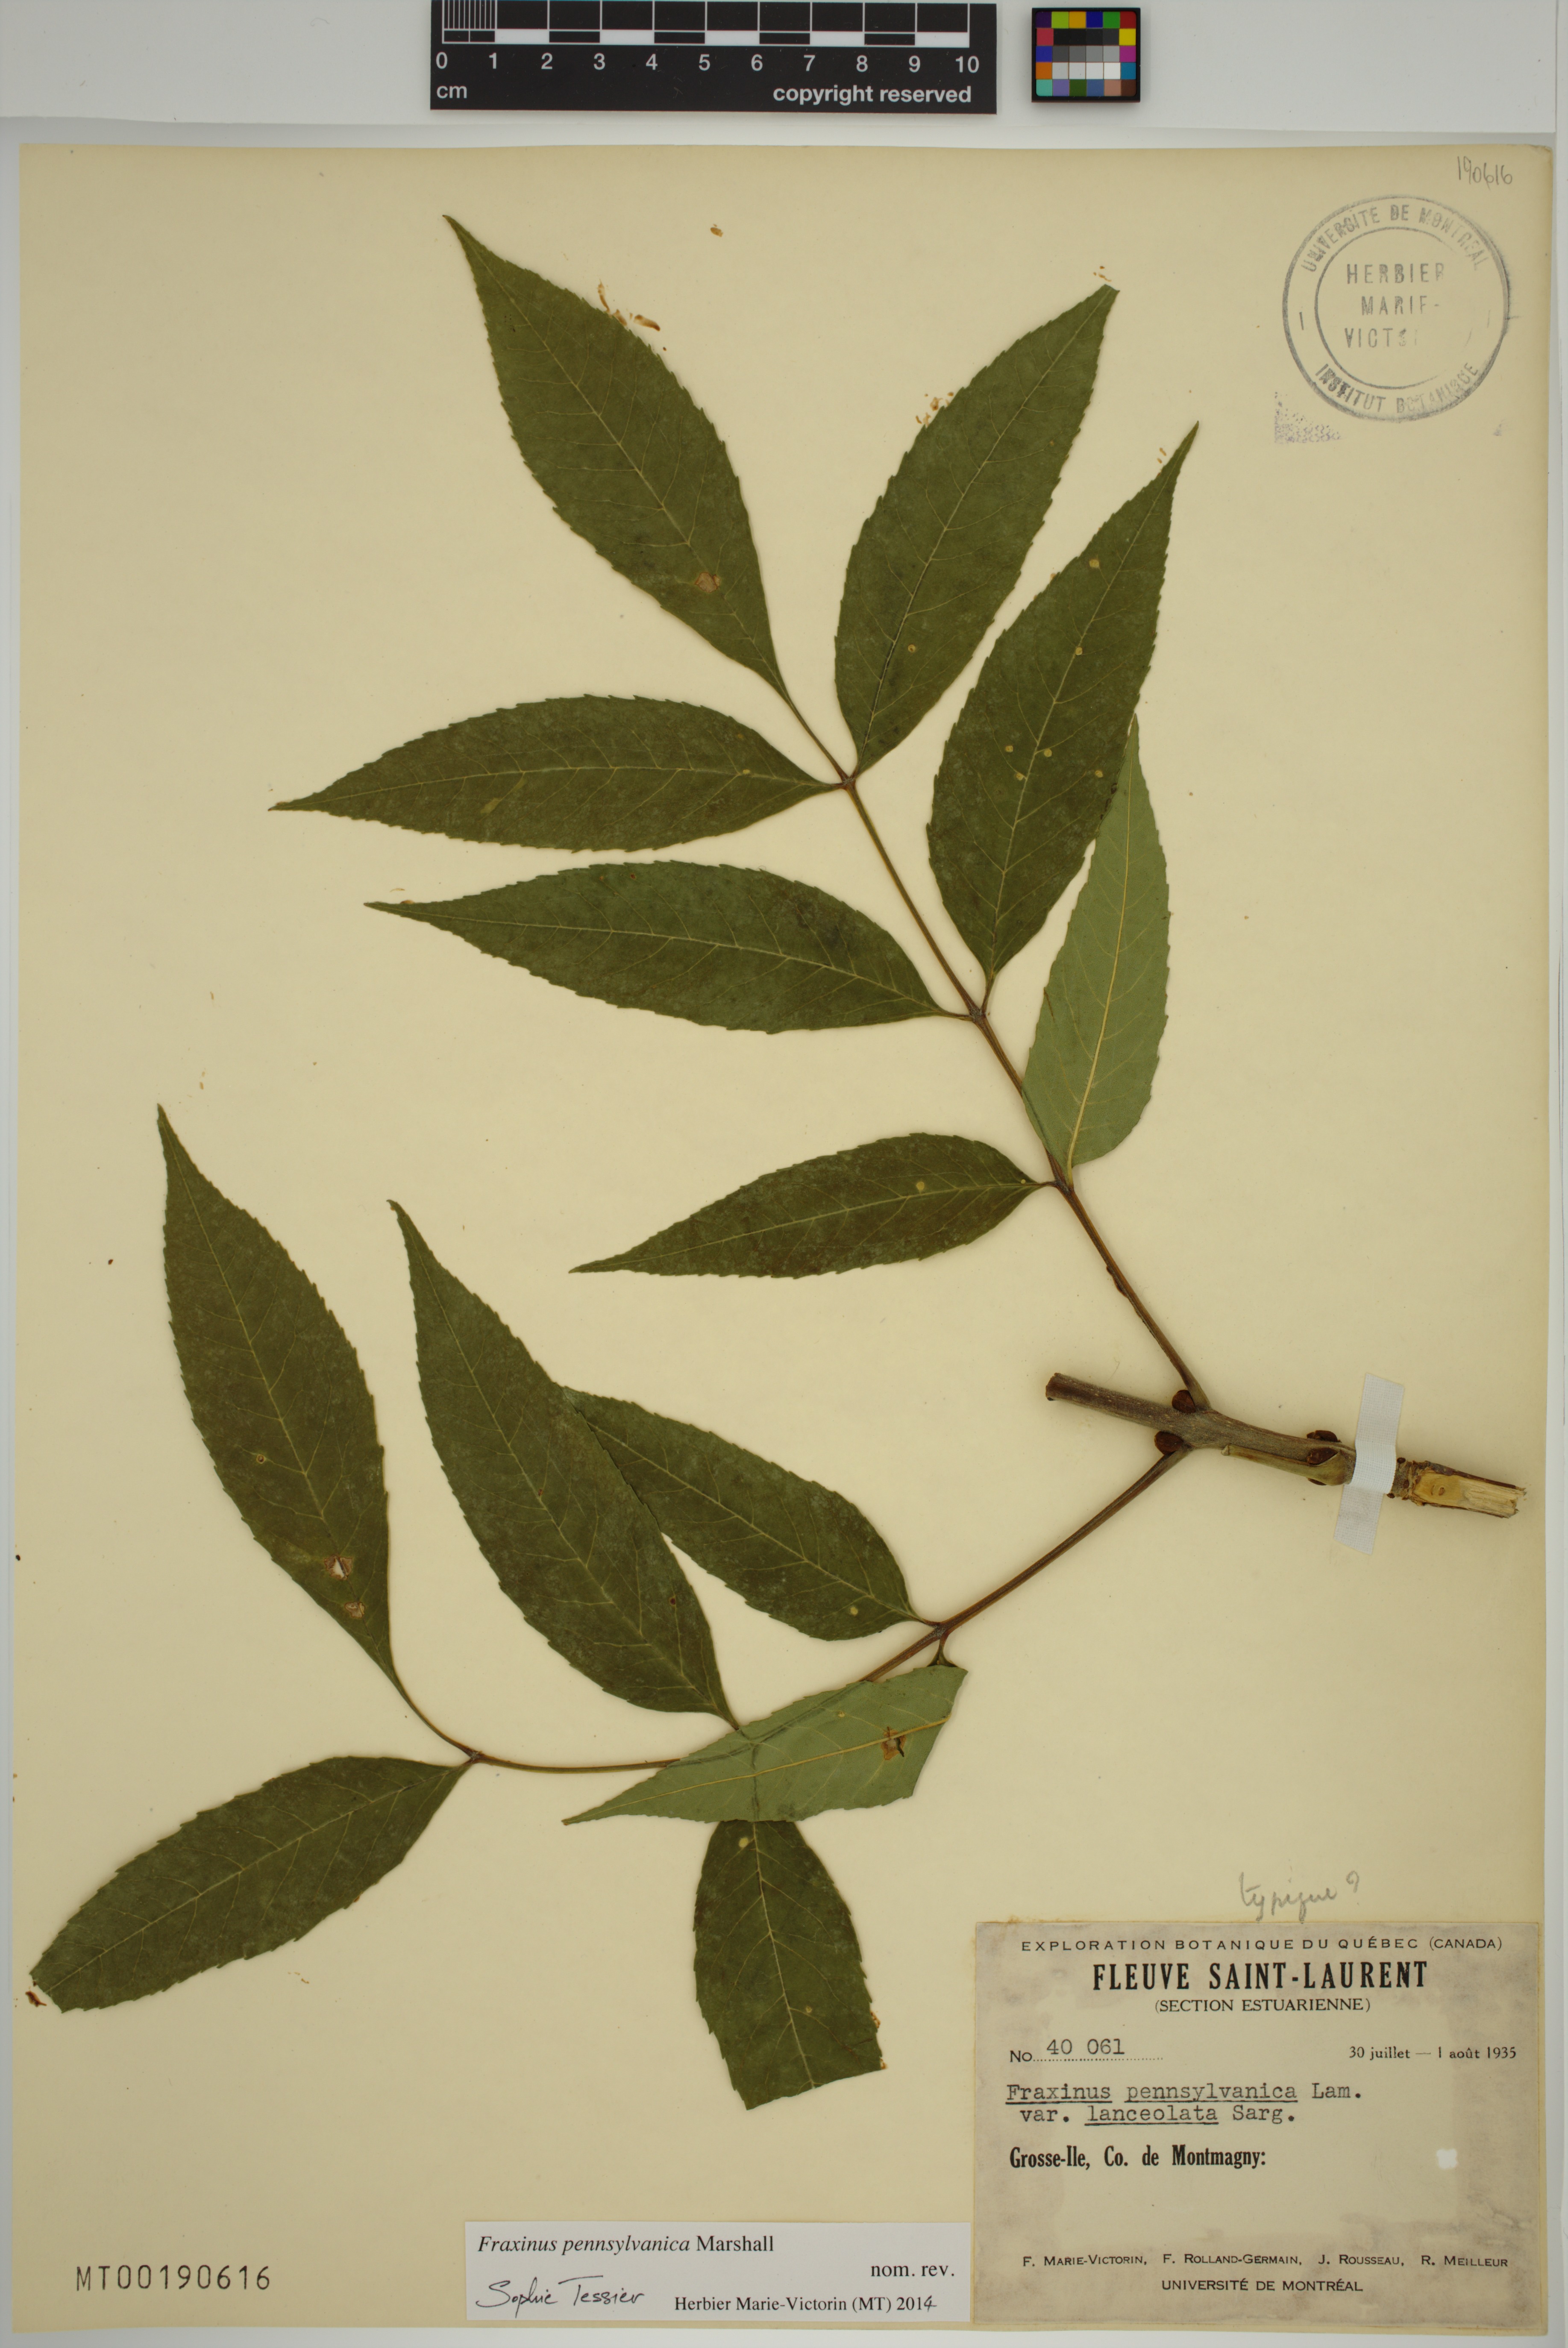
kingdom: Plantae
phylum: Tracheophyta
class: Magnoliopsida
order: Lamiales
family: Oleaceae
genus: Fraxinus
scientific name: Fraxinus pennsylvanica
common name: Green ash
